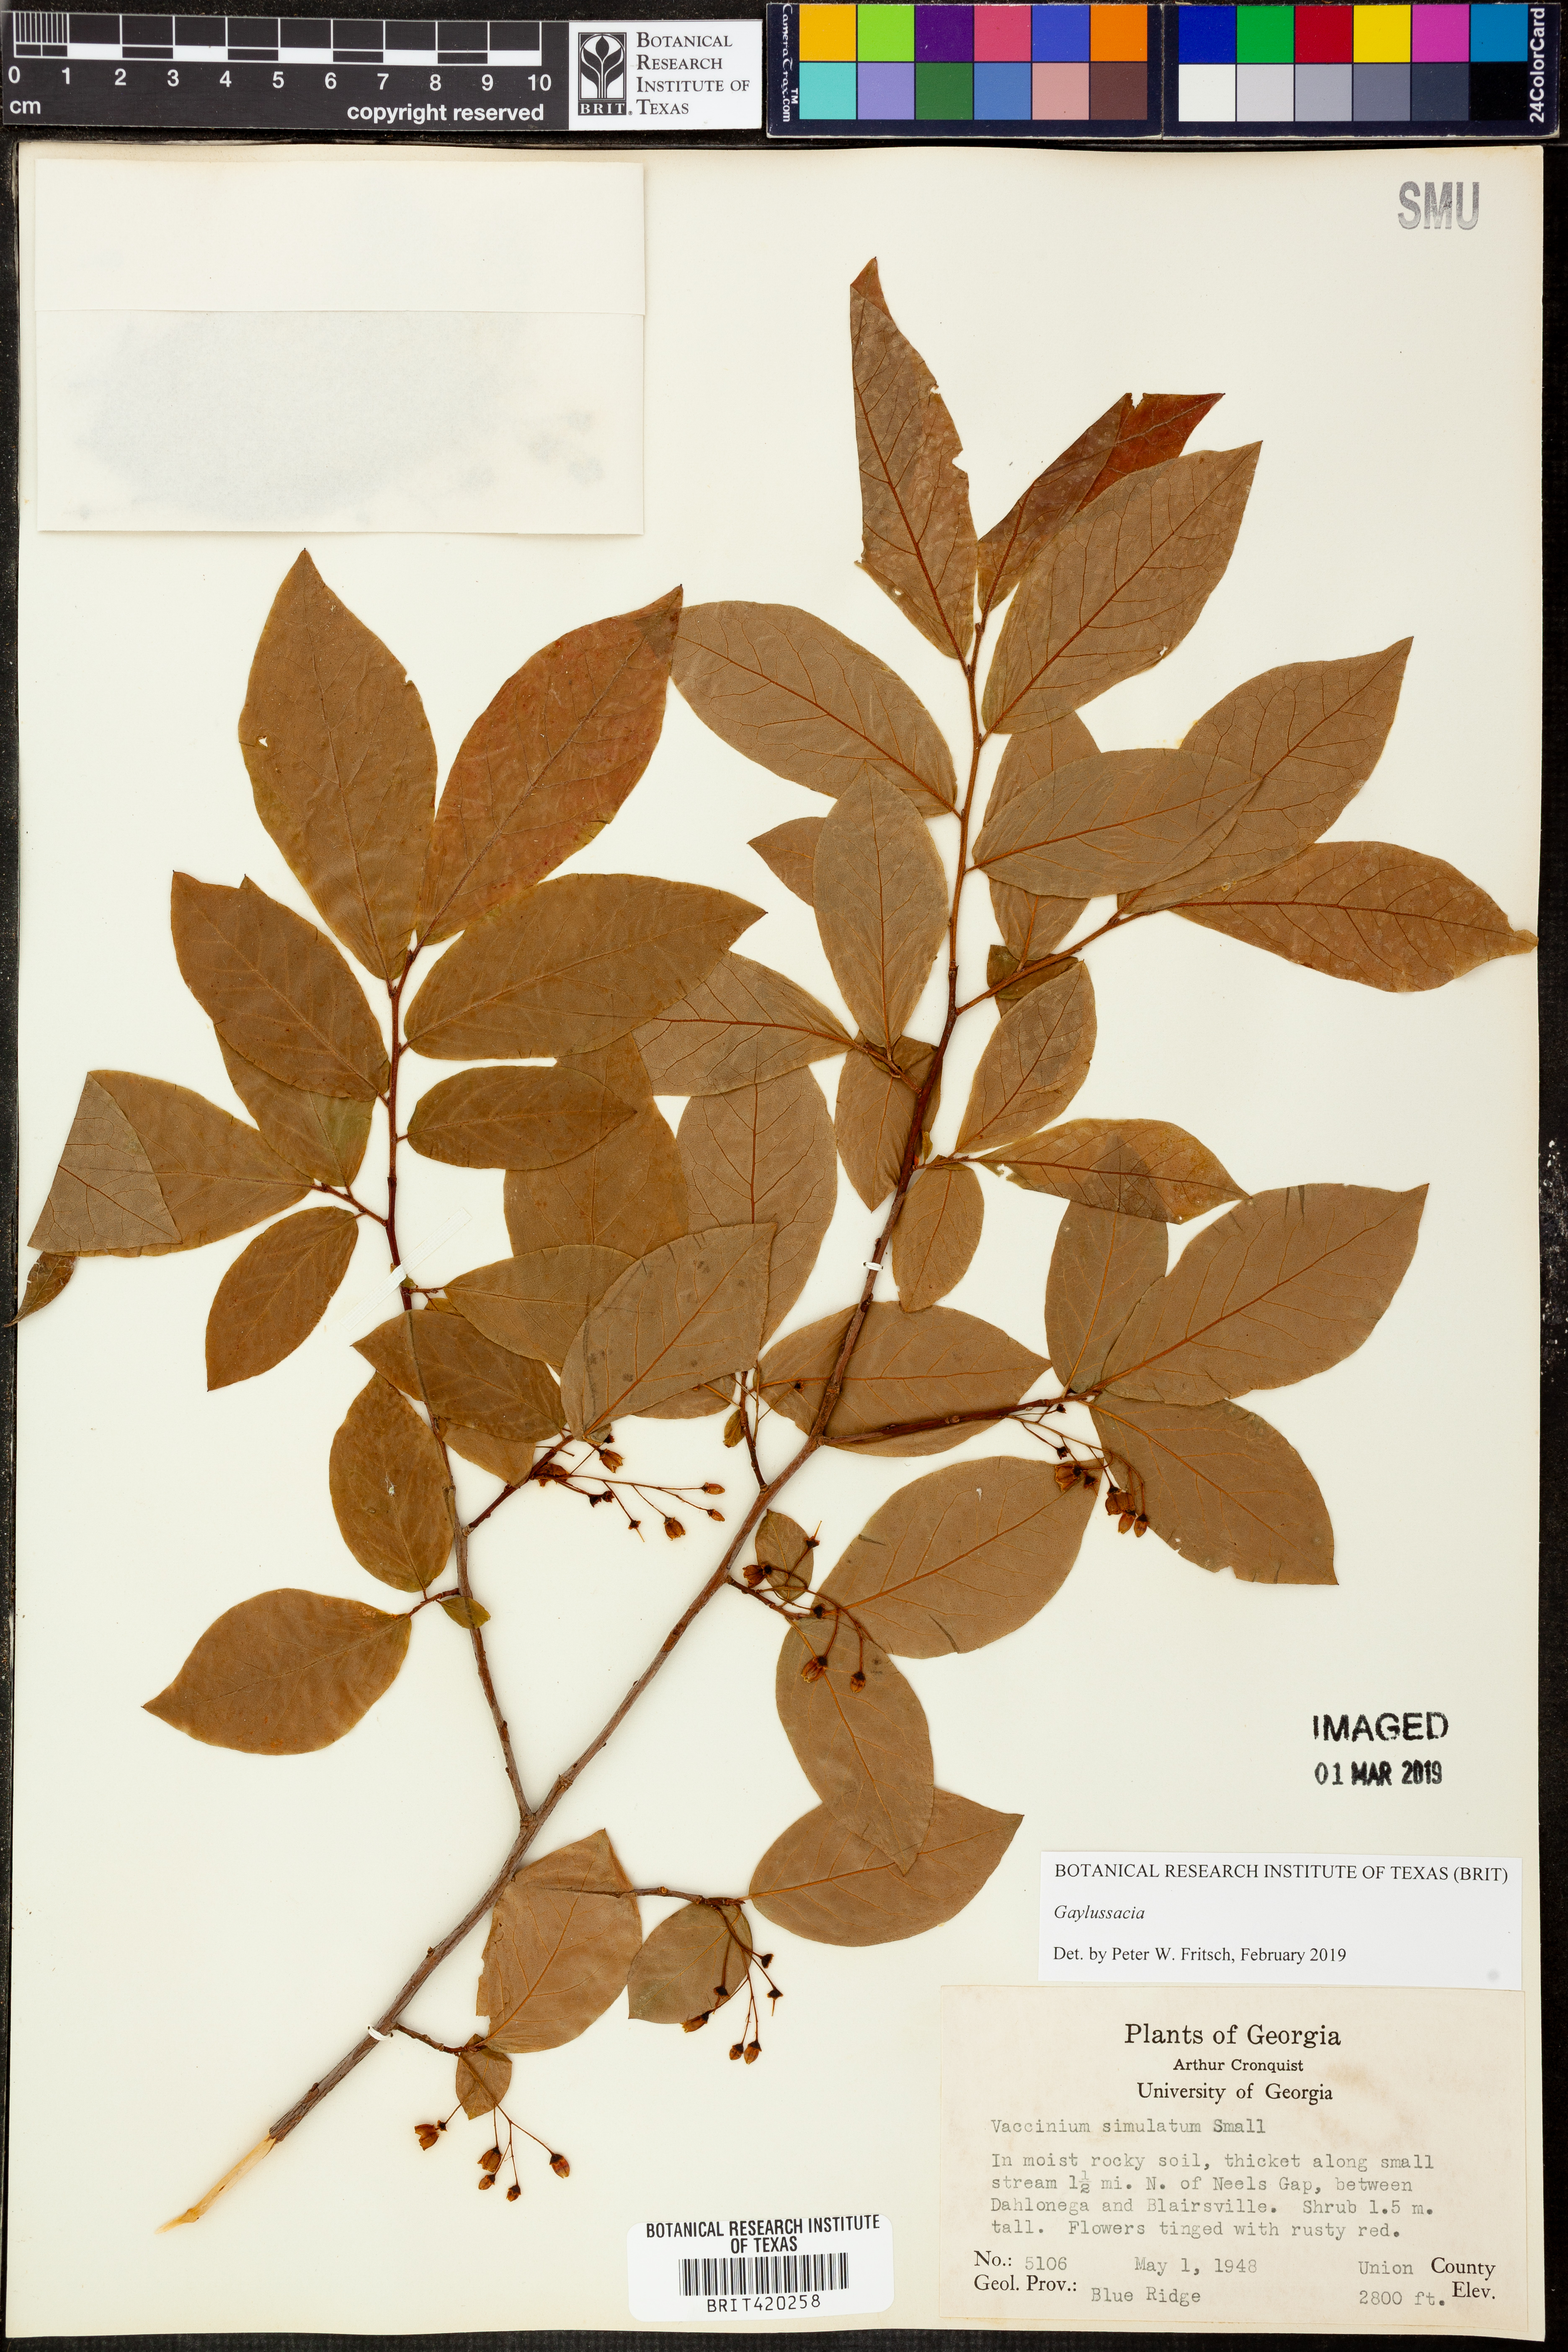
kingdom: Plantae
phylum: Tracheophyta
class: Magnoliopsida
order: Ericales
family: Ericaceae
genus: Gaylussacia
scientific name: Gaylussacia ursina
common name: Bear huckleberry
